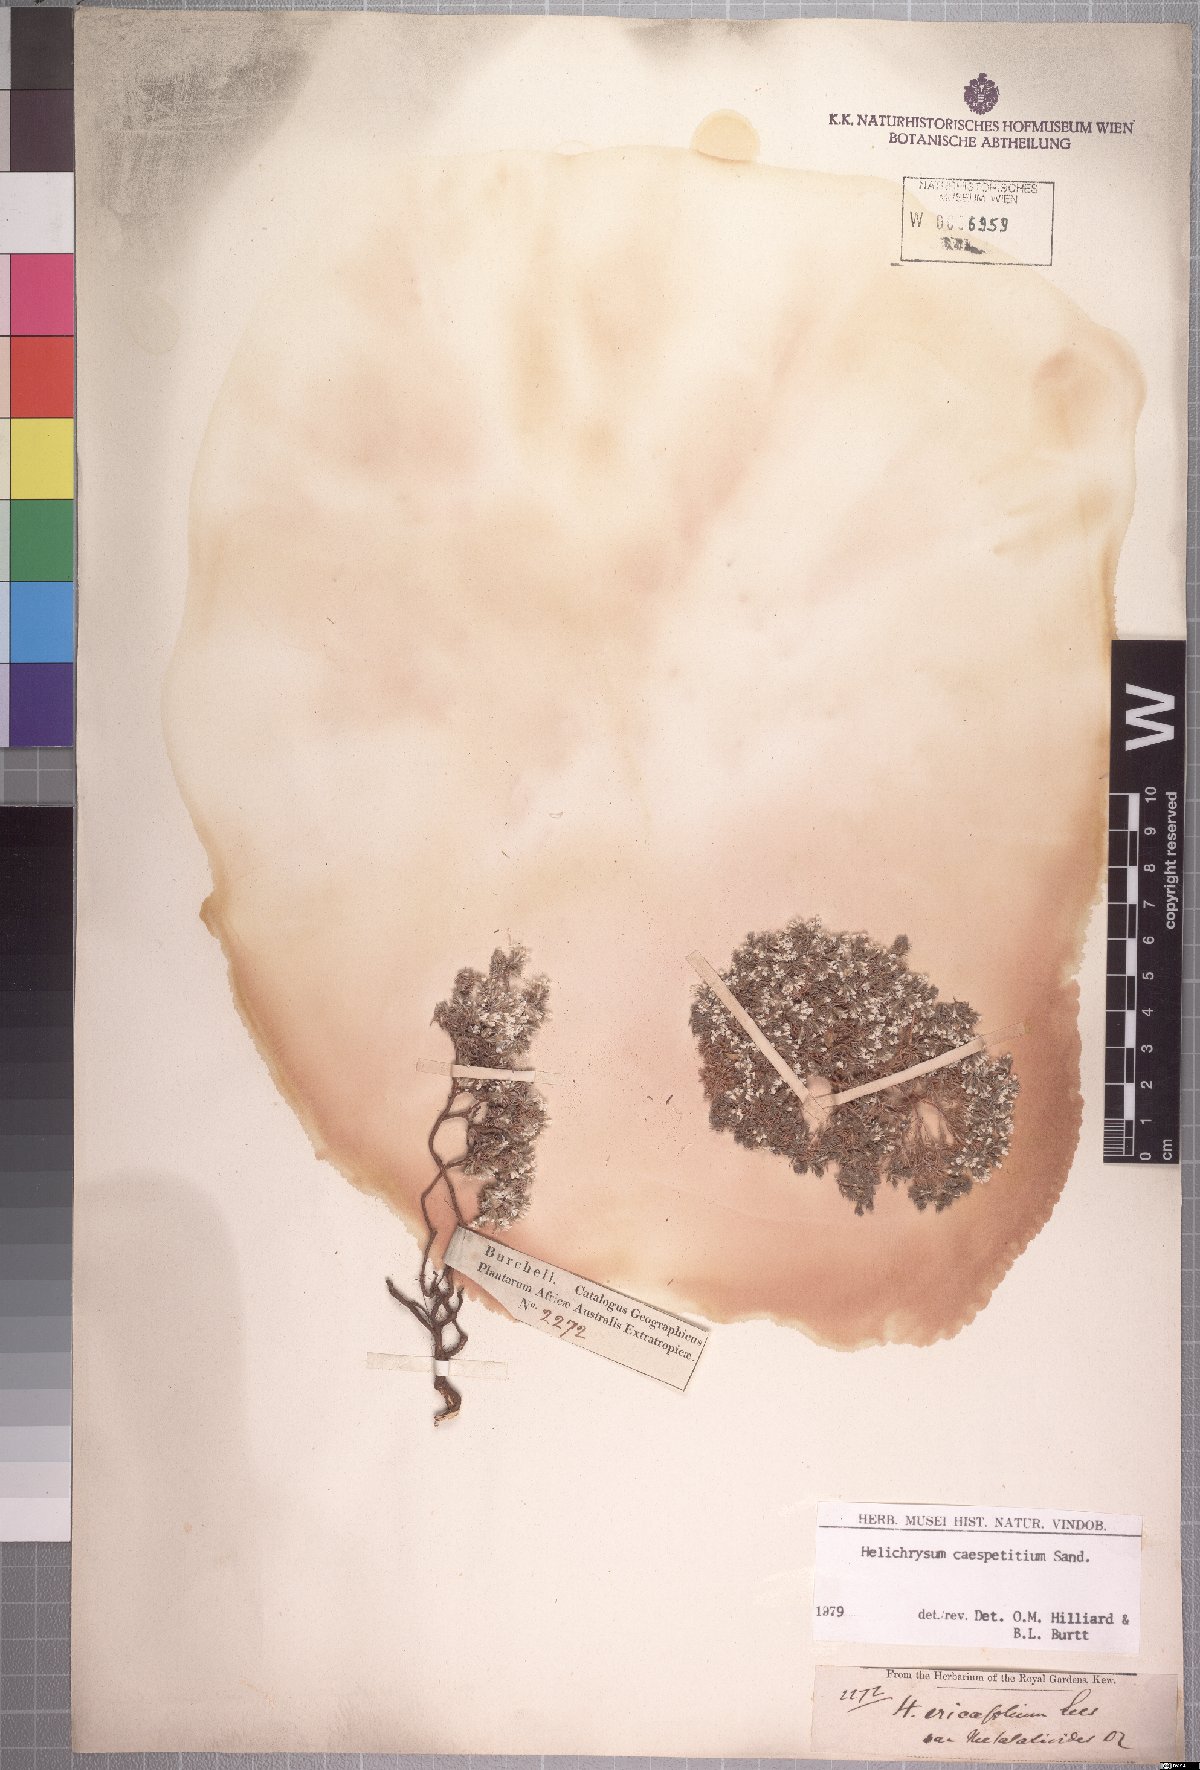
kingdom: Plantae
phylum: Tracheophyta
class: Magnoliopsida
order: Asterales
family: Asteraceae
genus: Helichrysum
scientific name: Helichrysum caespititium
